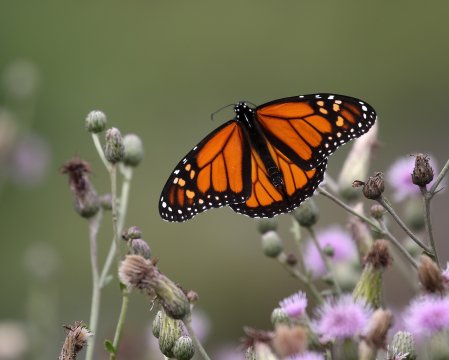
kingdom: Animalia
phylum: Arthropoda
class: Insecta
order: Lepidoptera
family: Nymphalidae
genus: Danaus
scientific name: Danaus plexippus
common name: Monarch
